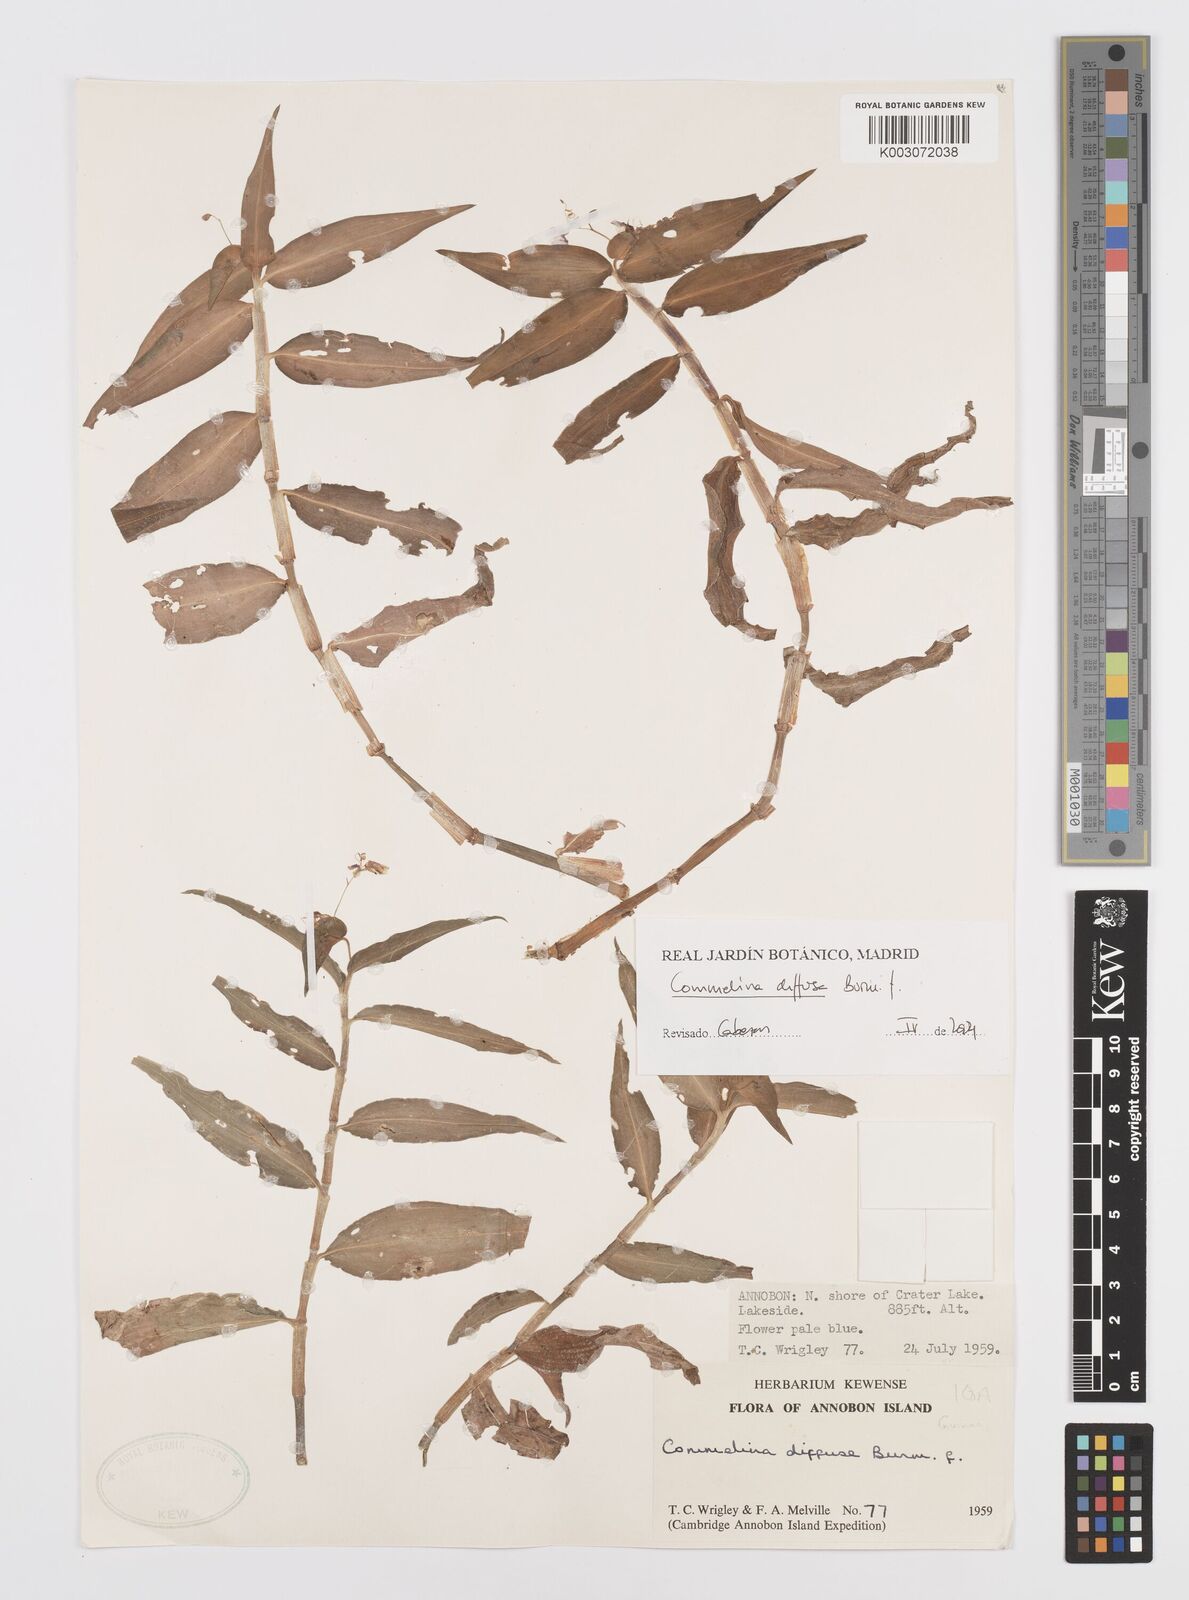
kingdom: Plantae
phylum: Tracheophyta
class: Liliopsida
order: Commelinales
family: Commelinaceae
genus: Commelina
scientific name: Commelina diffusa
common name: Climbing dayflower
